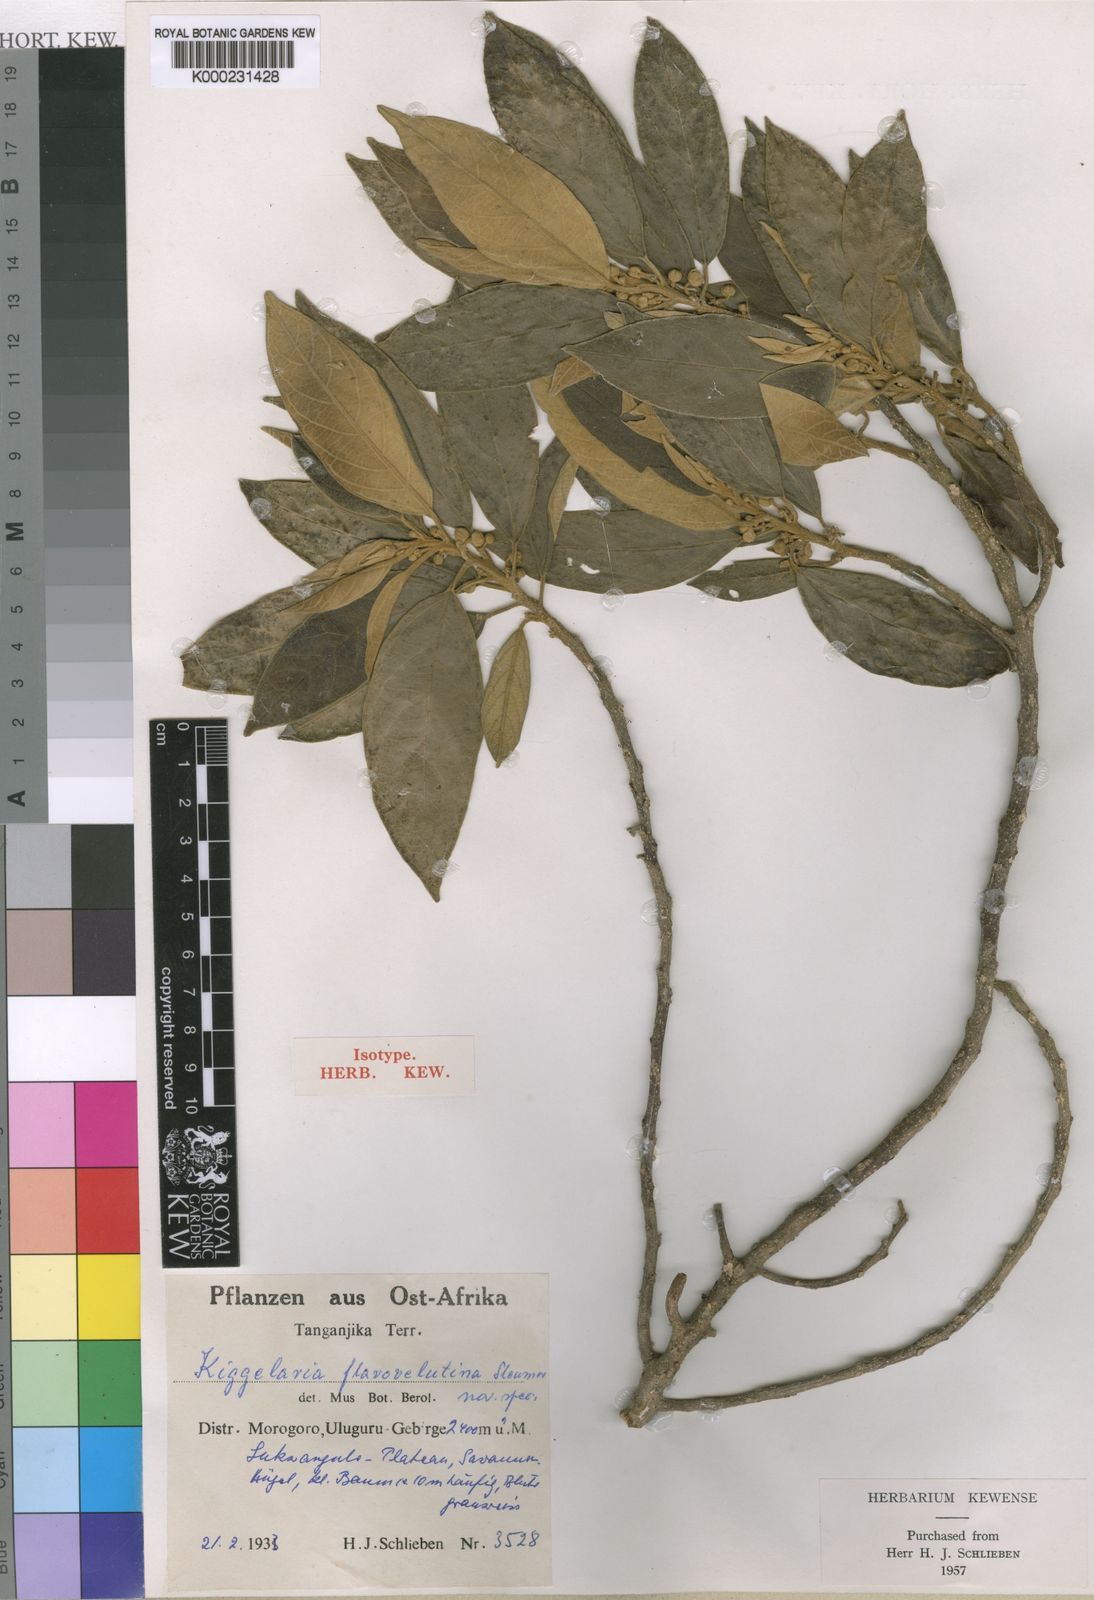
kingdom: Plantae
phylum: Tracheophyta
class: Magnoliopsida
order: Malpighiales
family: Achariaceae
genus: Kiggelaria
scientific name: Kiggelaria africana
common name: Wild peach
